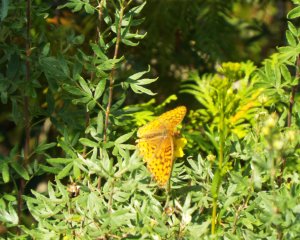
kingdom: Animalia
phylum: Arthropoda
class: Insecta
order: Lepidoptera
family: Nymphalidae
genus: Speyeria
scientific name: Speyeria aphrodite
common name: Aphrodite Fritillary
